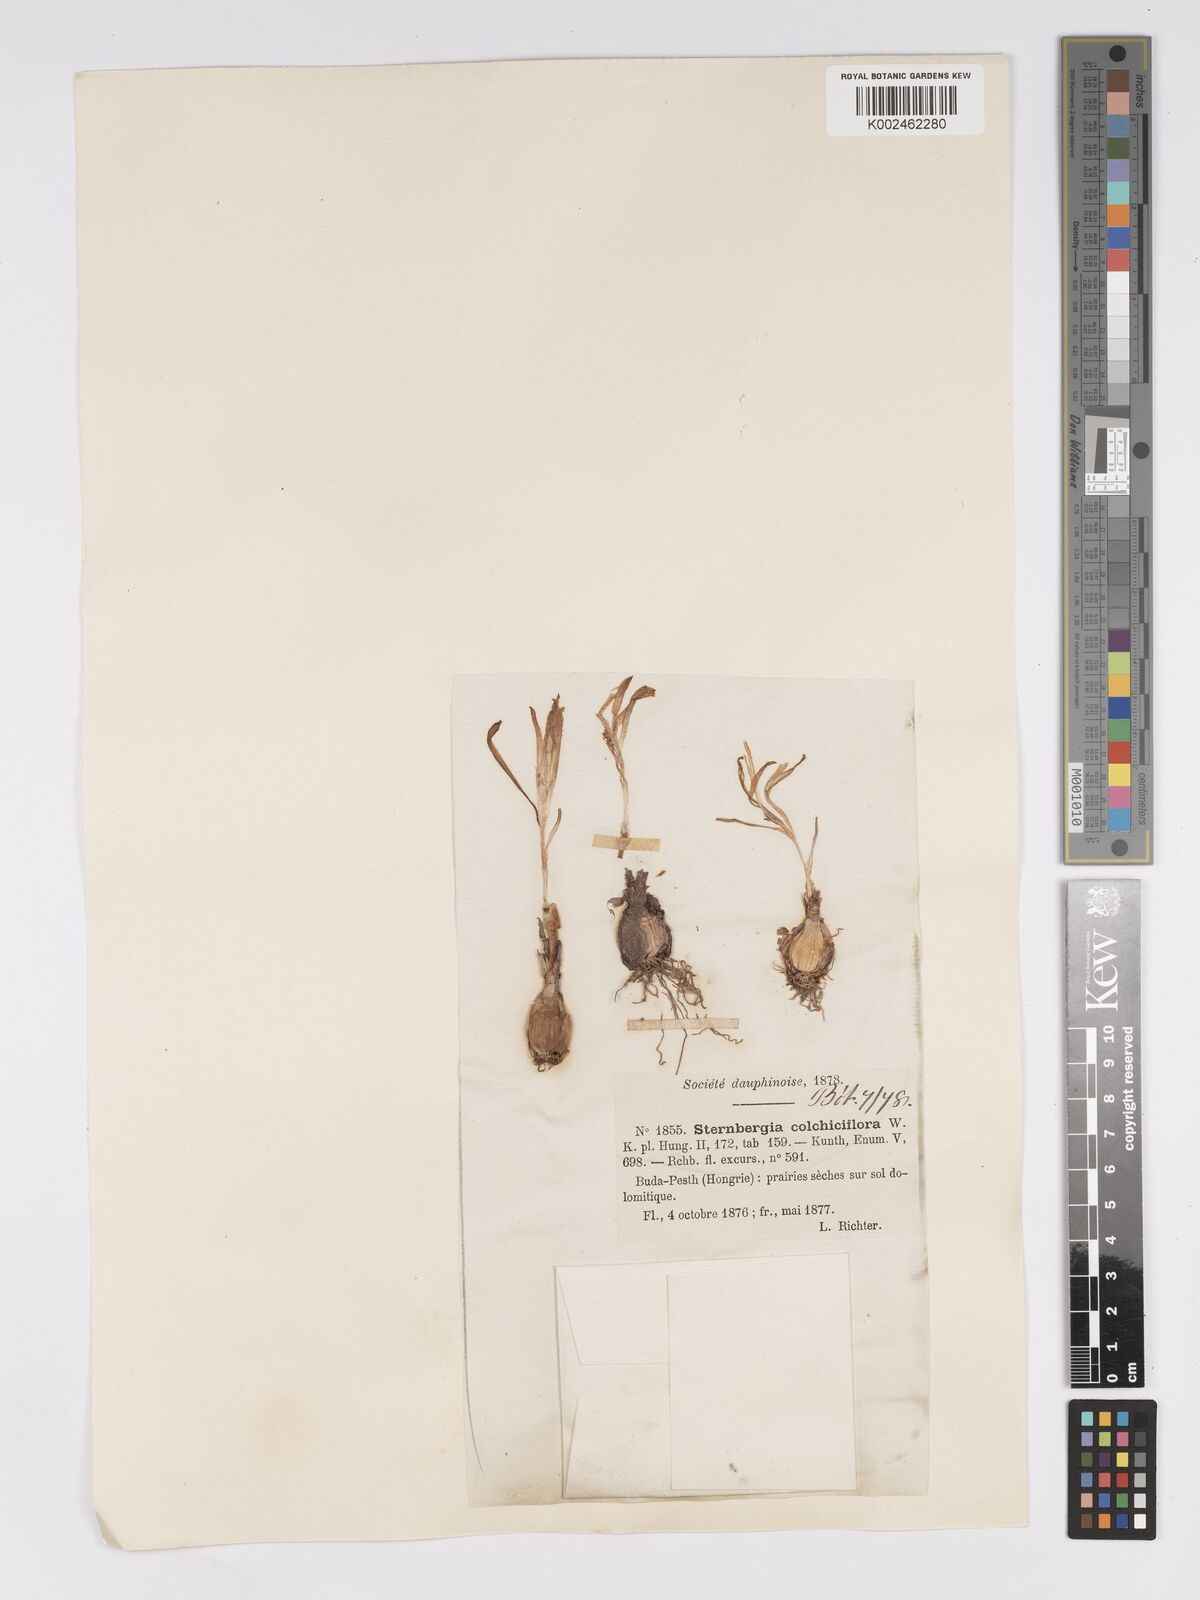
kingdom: Plantae
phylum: Tracheophyta
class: Liliopsida
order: Asparagales
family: Amaryllidaceae
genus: Sternbergia
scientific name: Sternbergia colchiciflora
